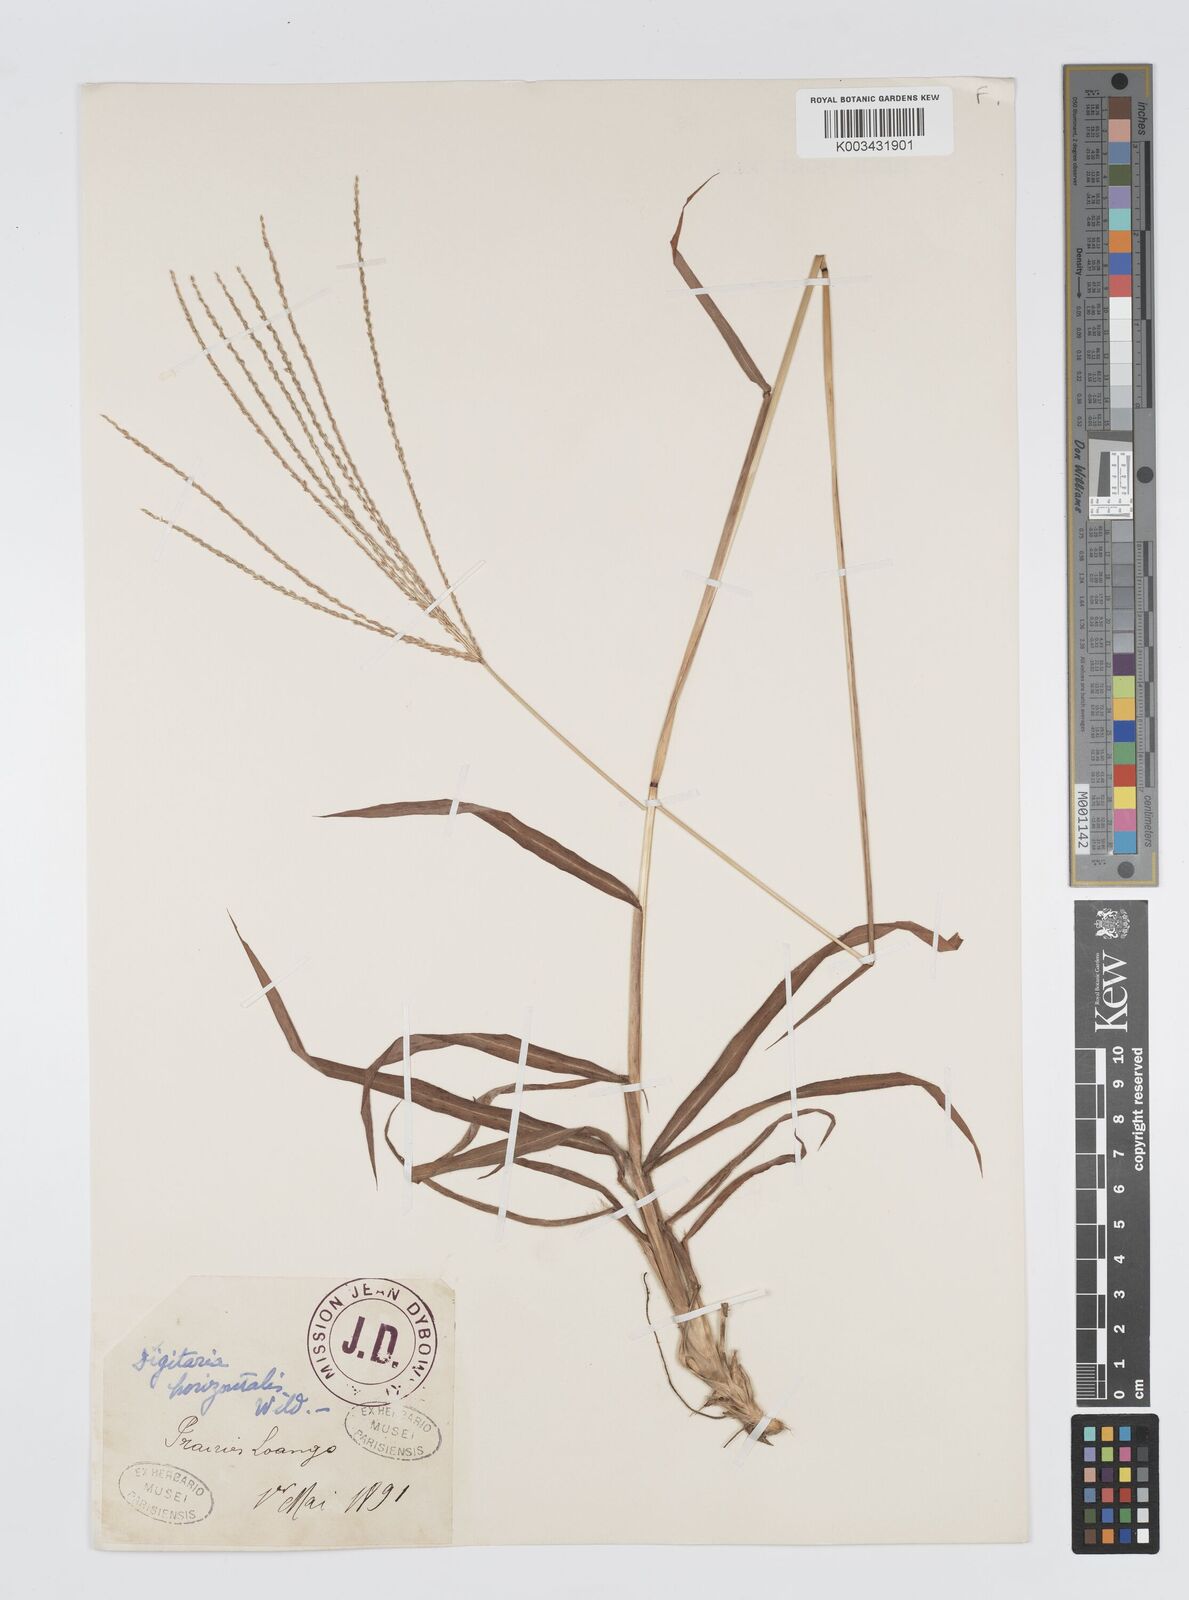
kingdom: Plantae
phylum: Tracheophyta
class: Liliopsida
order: Poales
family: Poaceae
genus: Digitaria
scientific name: Digitaria horizontalis
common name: Jamaican crabgrass
